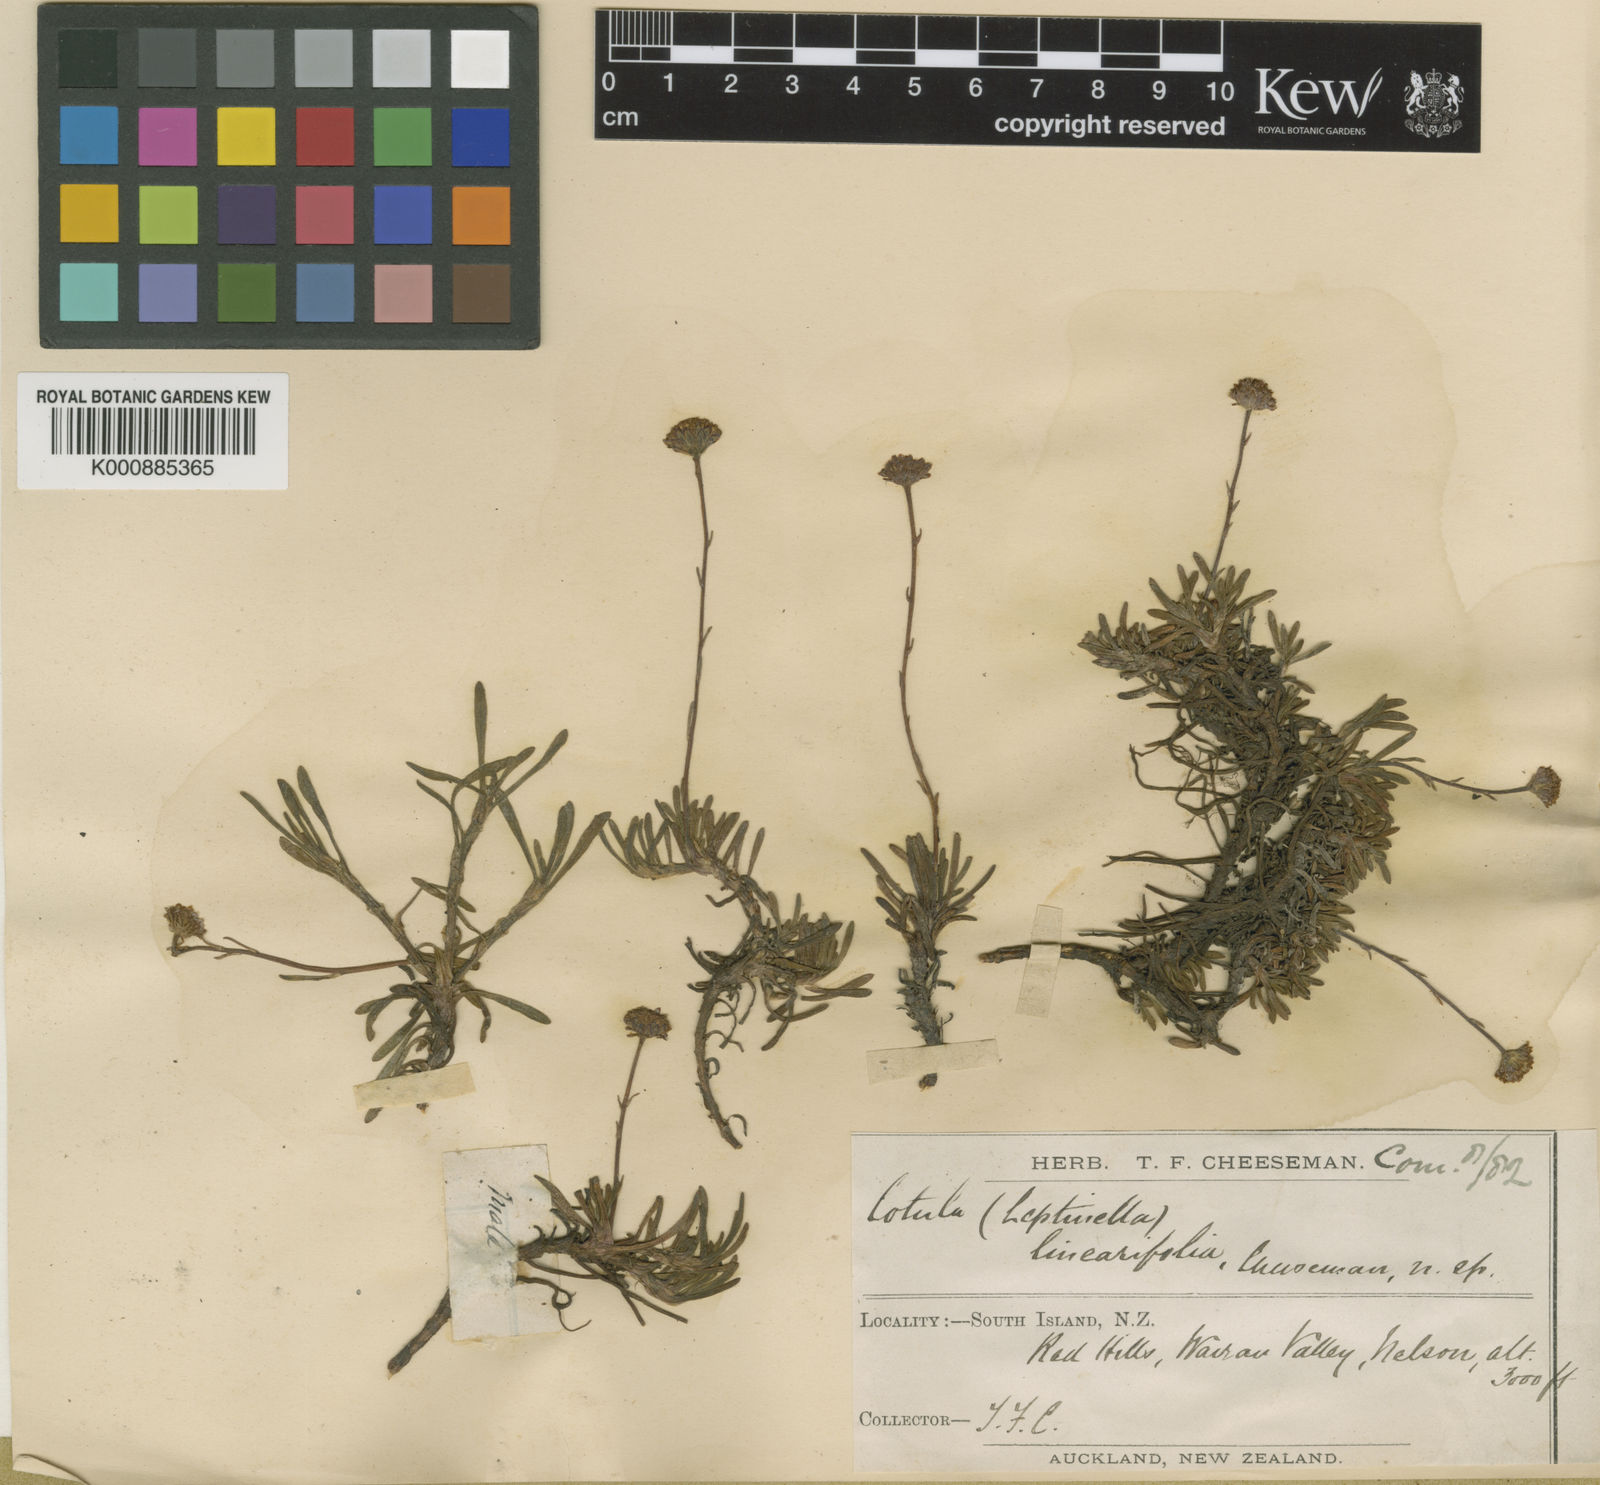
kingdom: Plantae
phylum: Tracheophyta
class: Magnoliopsida
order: Asterales
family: Asteraceae
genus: Leptinella
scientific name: Leptinella
